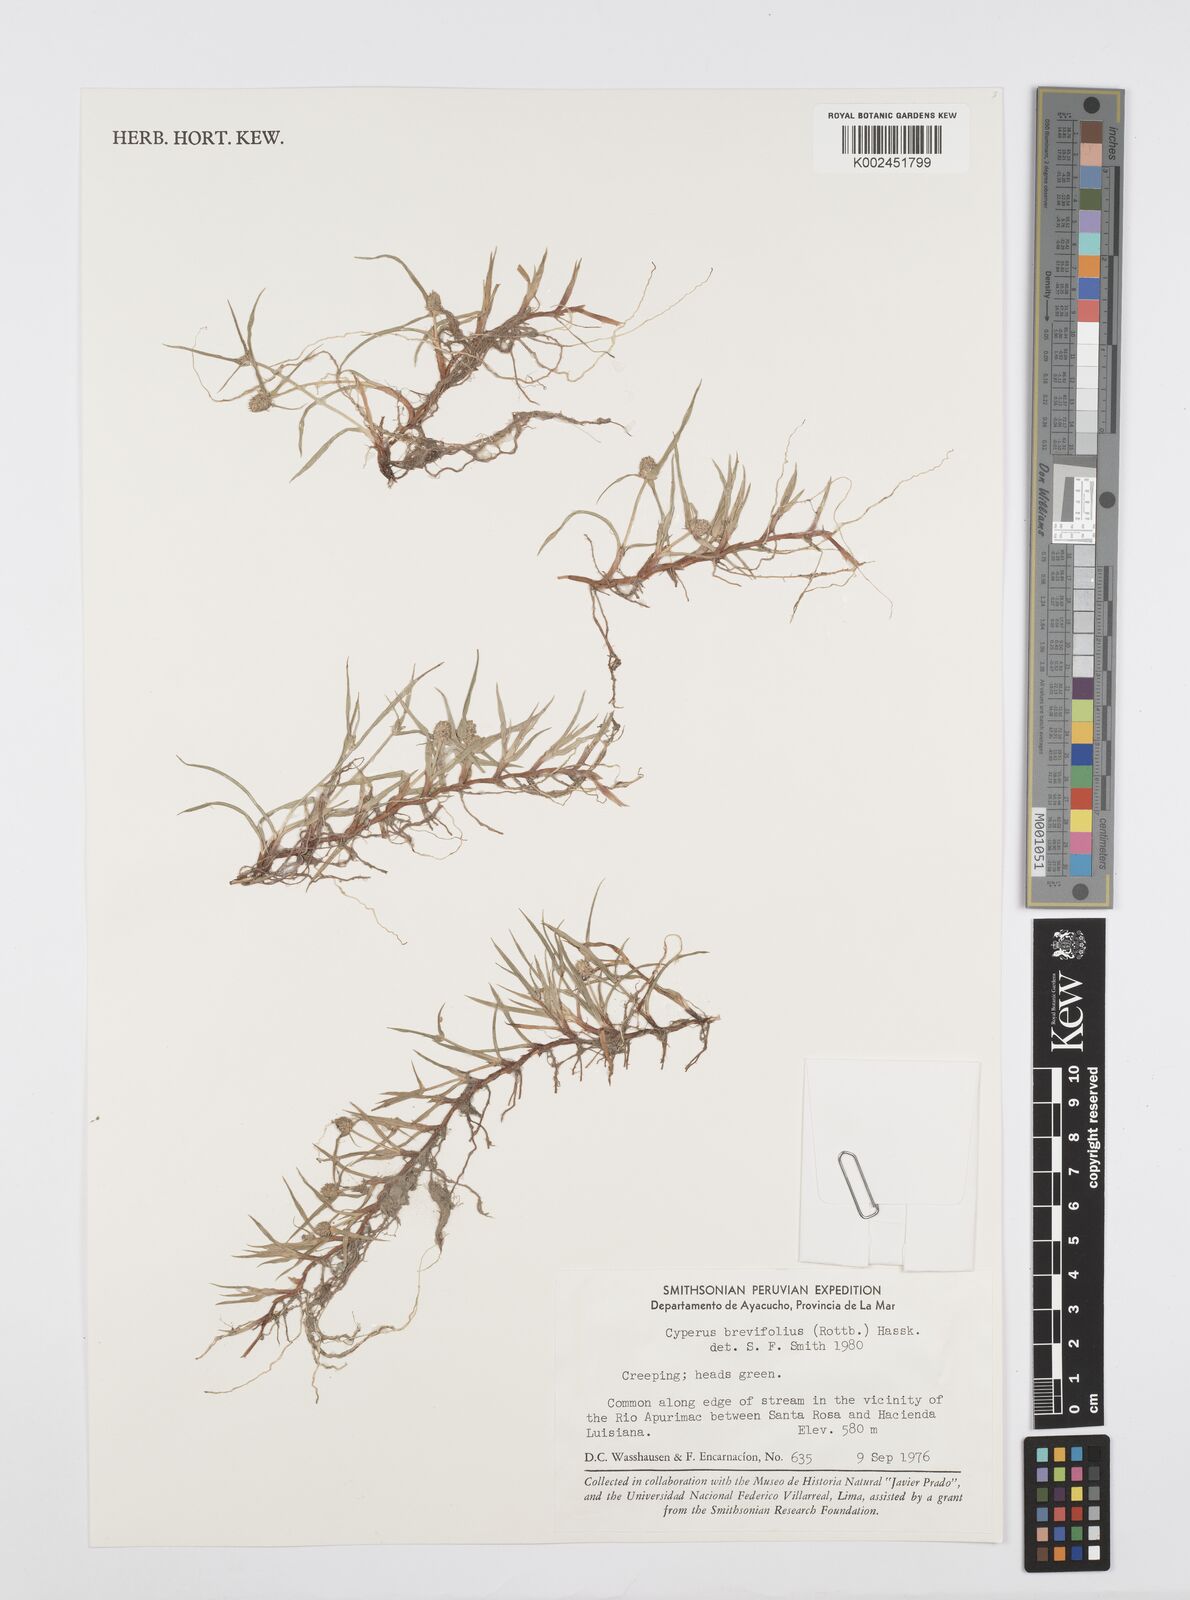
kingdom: Plantae
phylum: Tracheophyta
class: Liliopsida
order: Poales
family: Cyperaceae
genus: Cyperus
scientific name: Cyperus brevifolius
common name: Globe kyllinga
